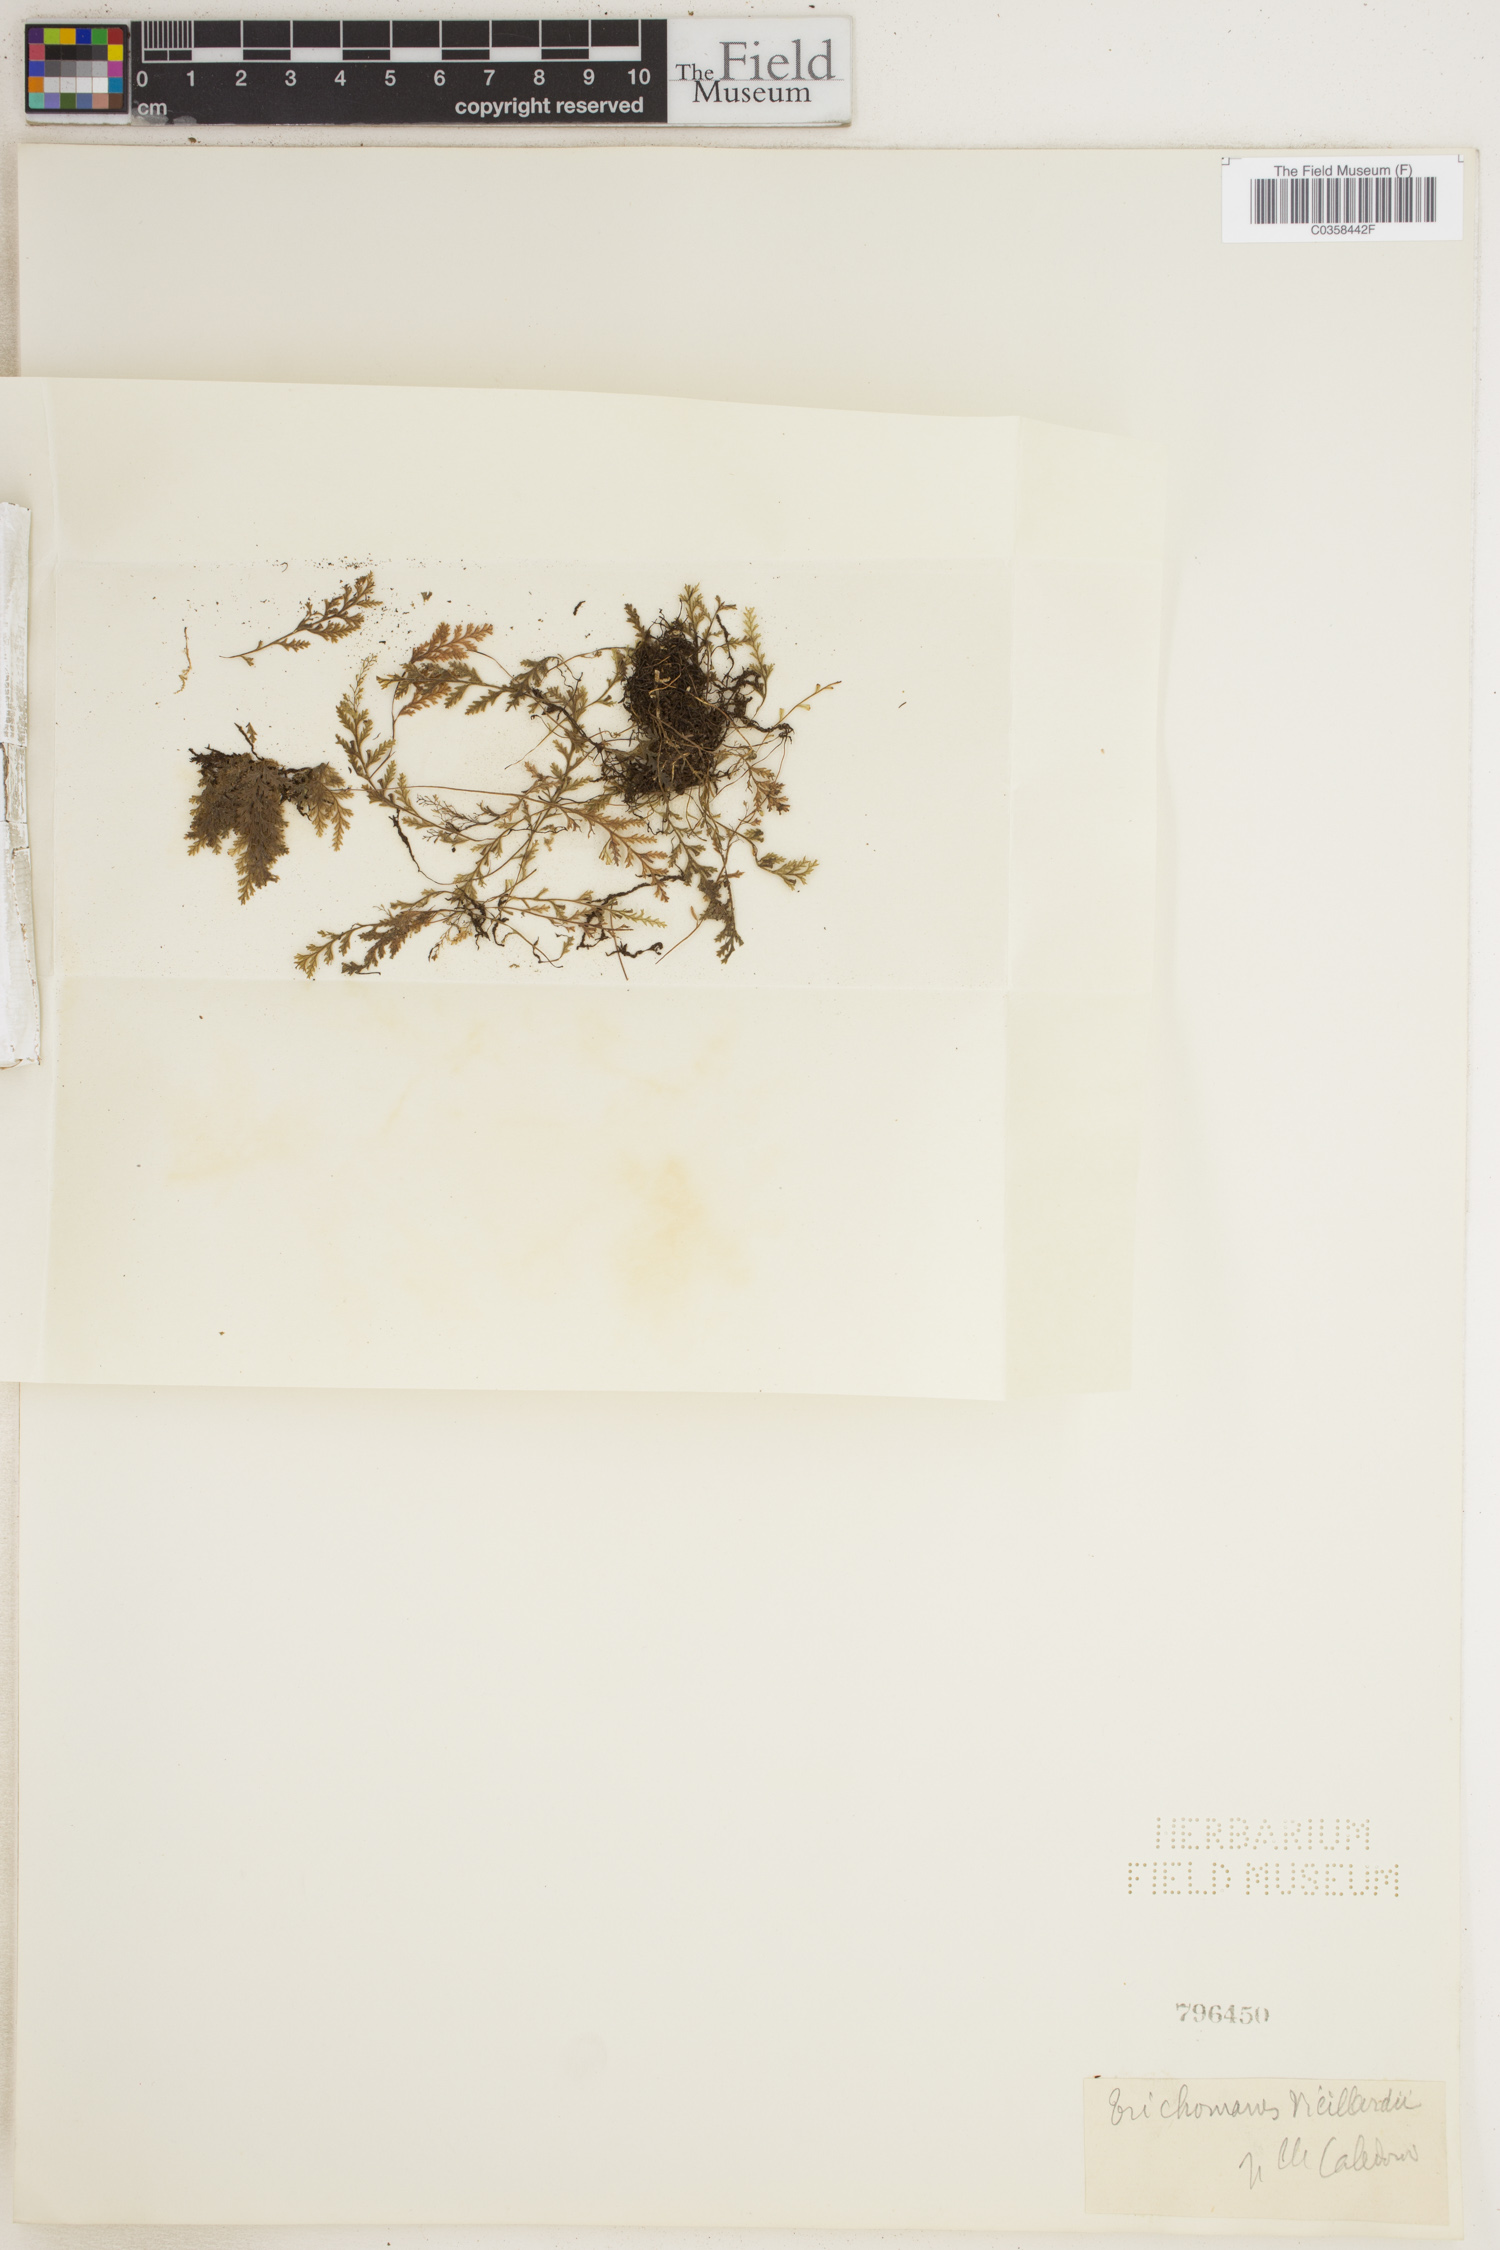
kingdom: Plantae
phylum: Tracheophyta
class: Polypodiopsida
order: Hymenophyllales
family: Hymenophyllaceae
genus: Polyphlebium
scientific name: Polyphlebium vieillardii
